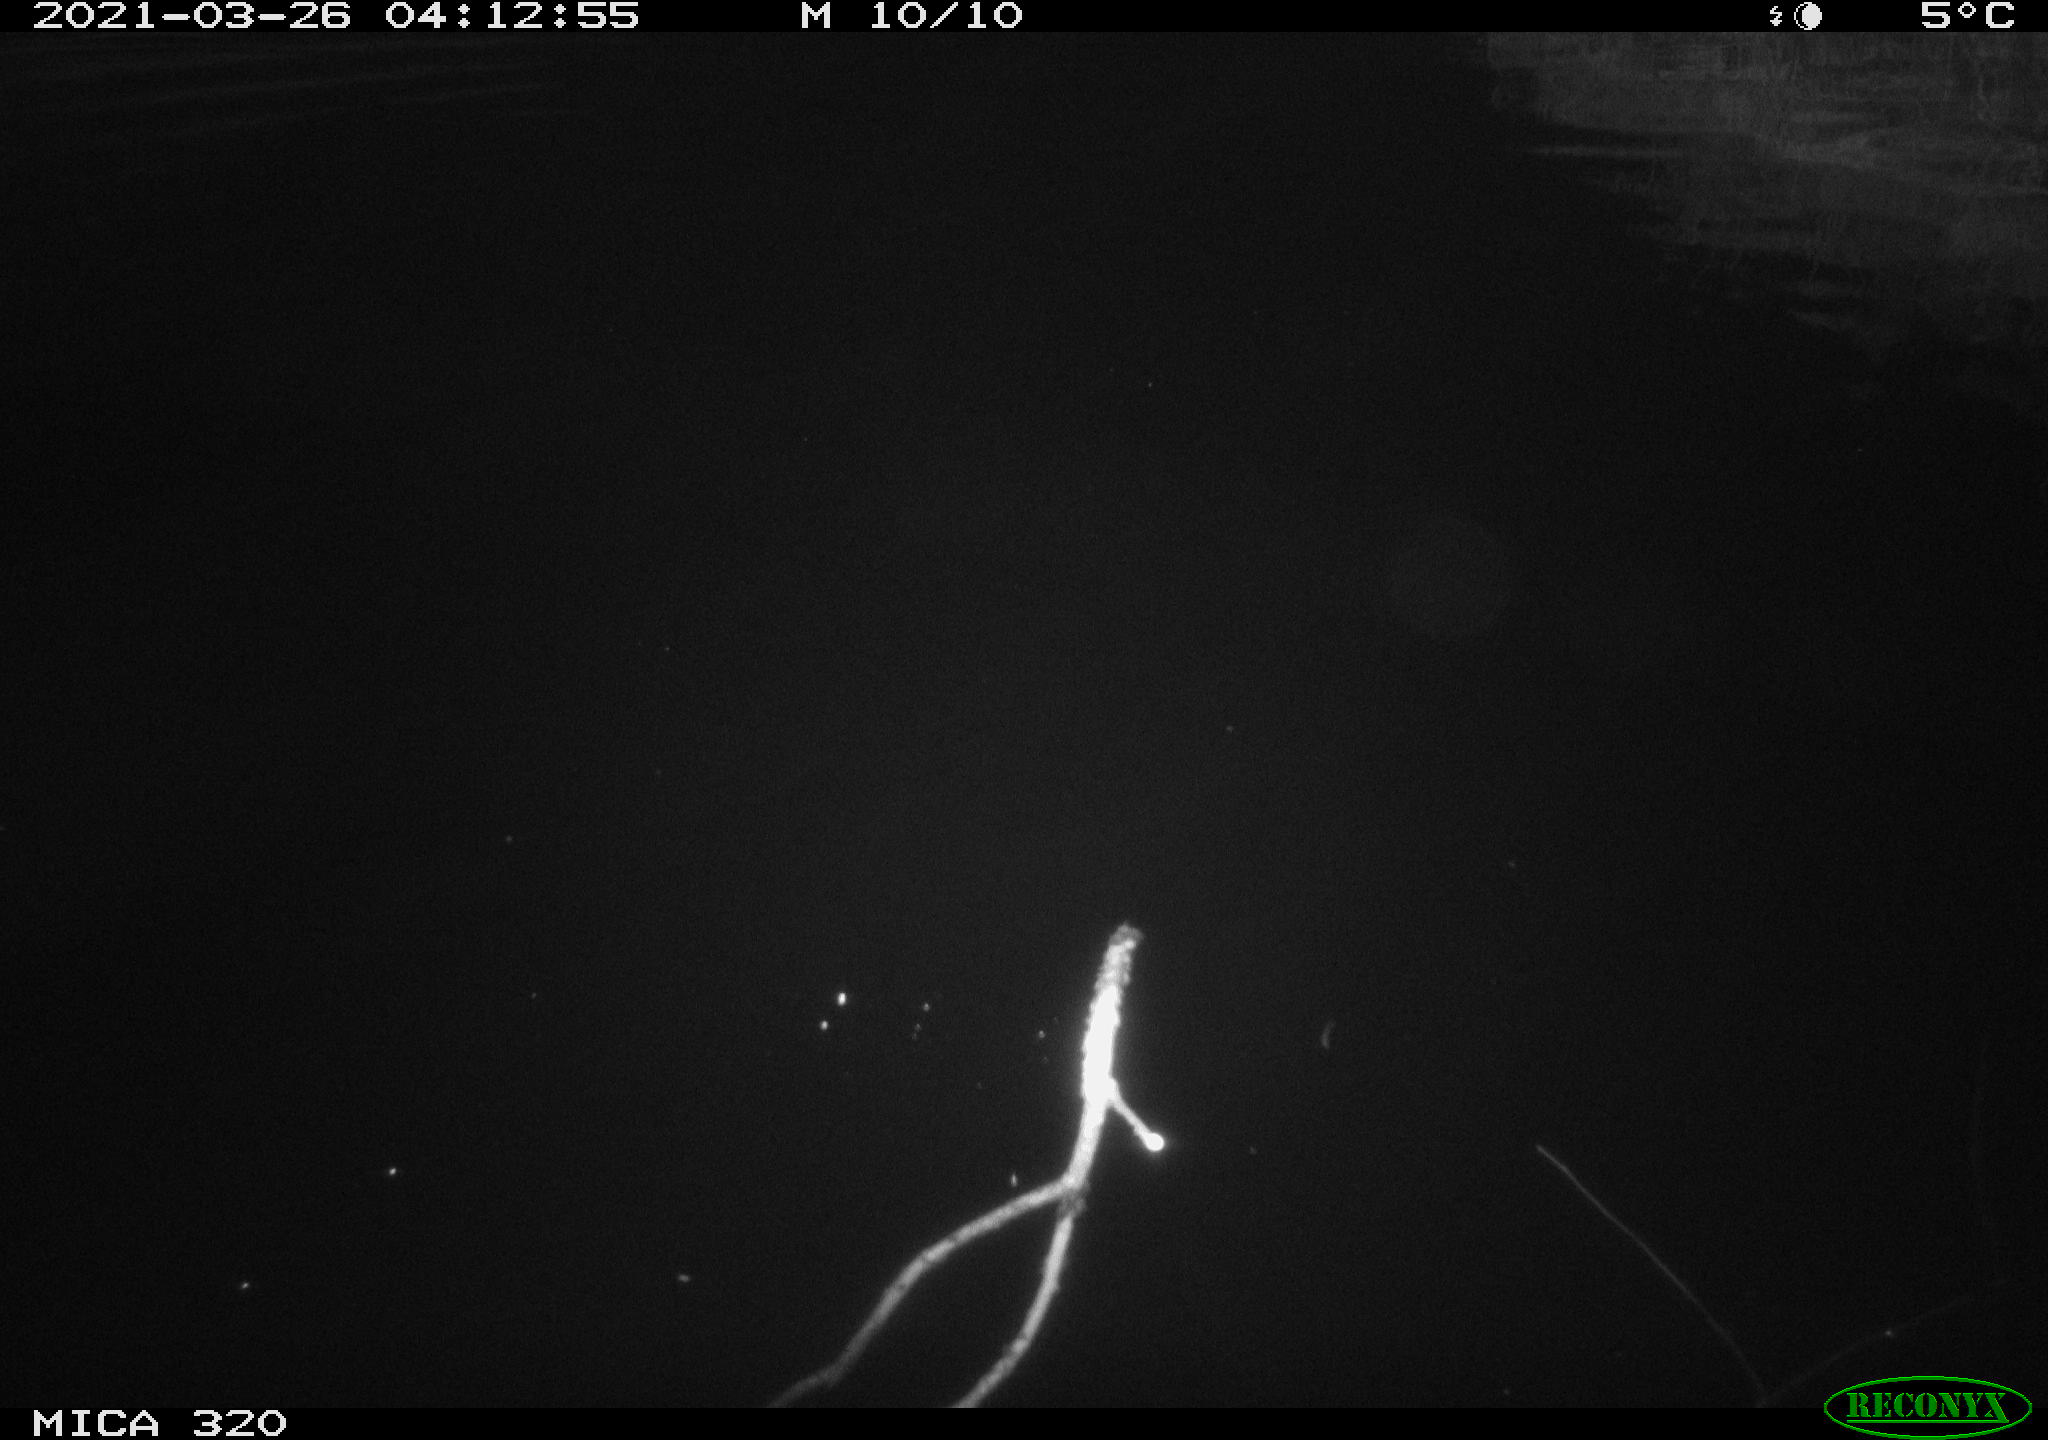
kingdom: Animalia
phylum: Chordata
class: Aves
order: Anseriformes
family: Anatidae
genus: Anas
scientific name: Anas platyrhynchos
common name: Mallard
